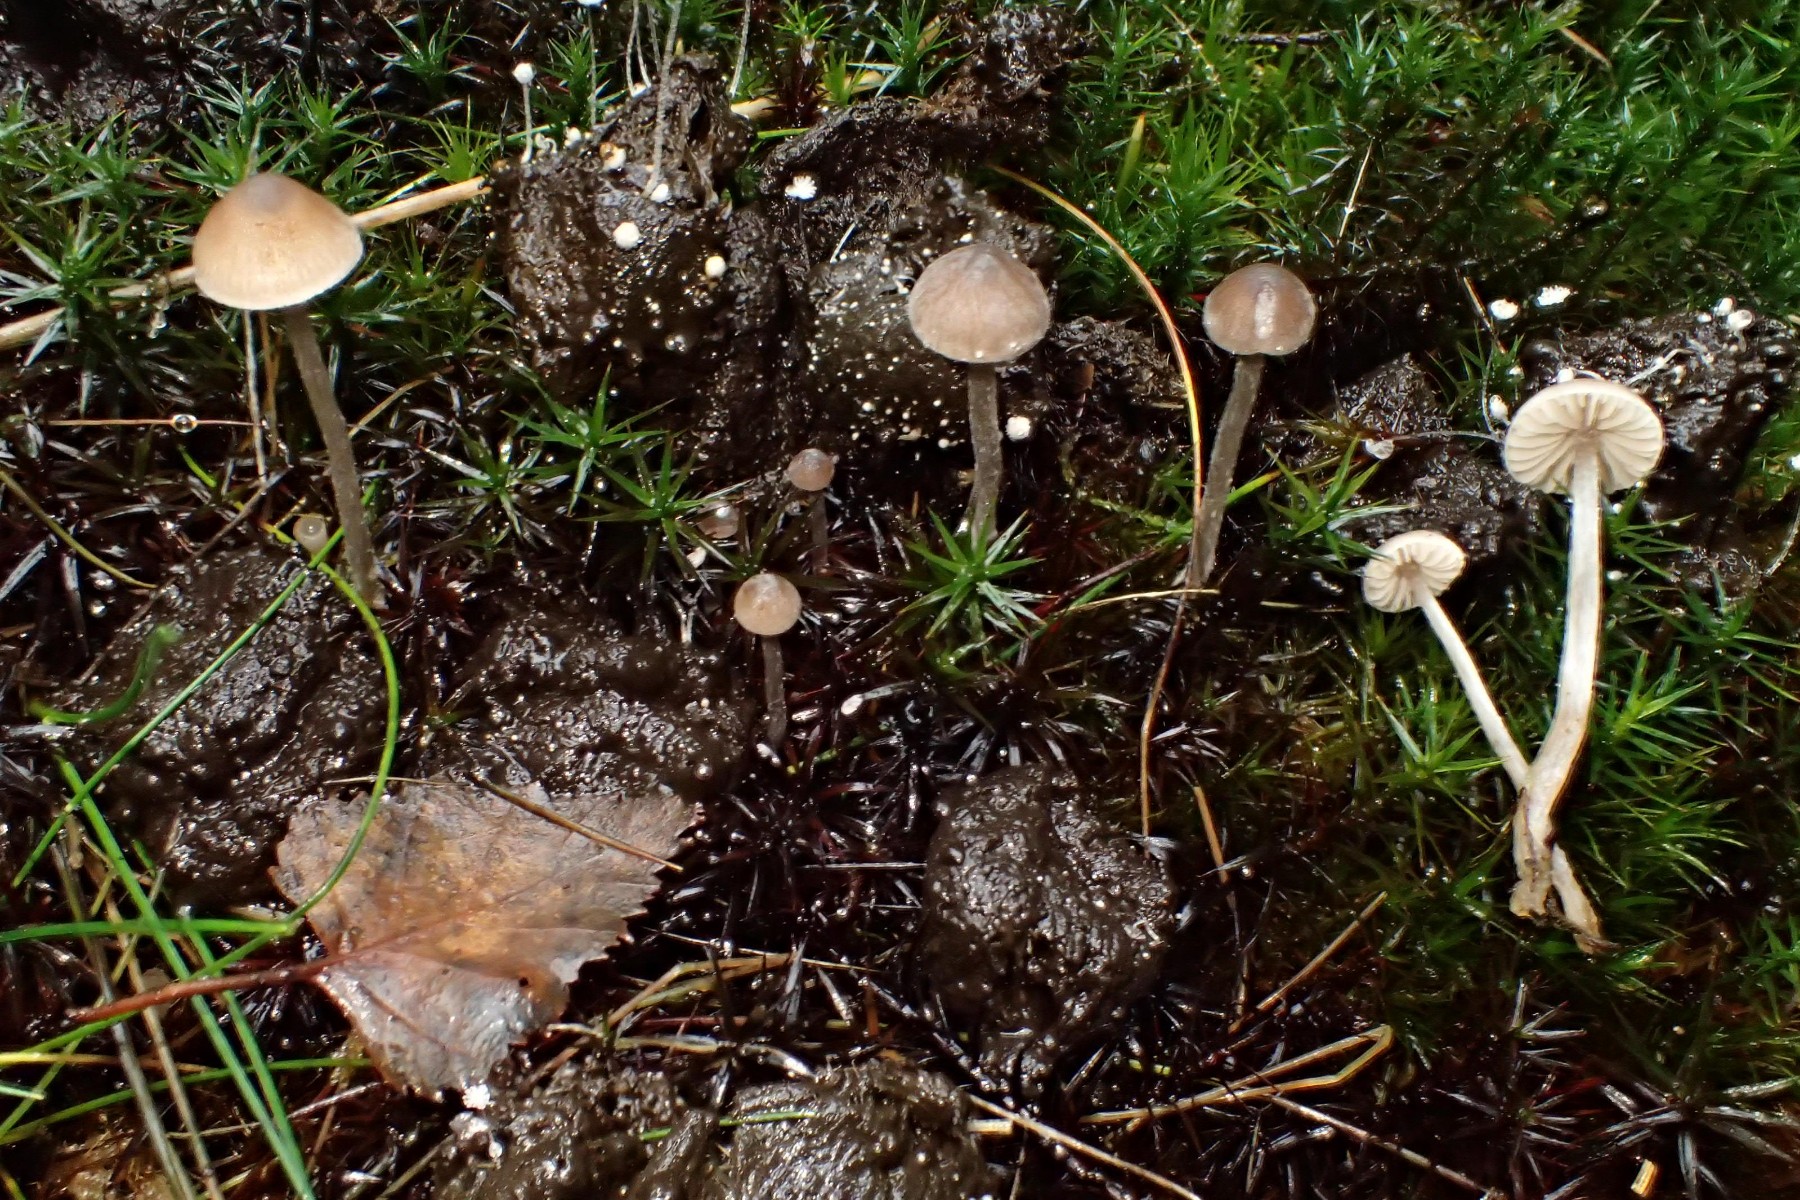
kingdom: Fungi
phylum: Basidiomycota
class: Agaricomycetes
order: Agaricales
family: Lyophyllaceae
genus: Sagaranella
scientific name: Sagaranella tylicolor
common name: kvælstof-gråblad
